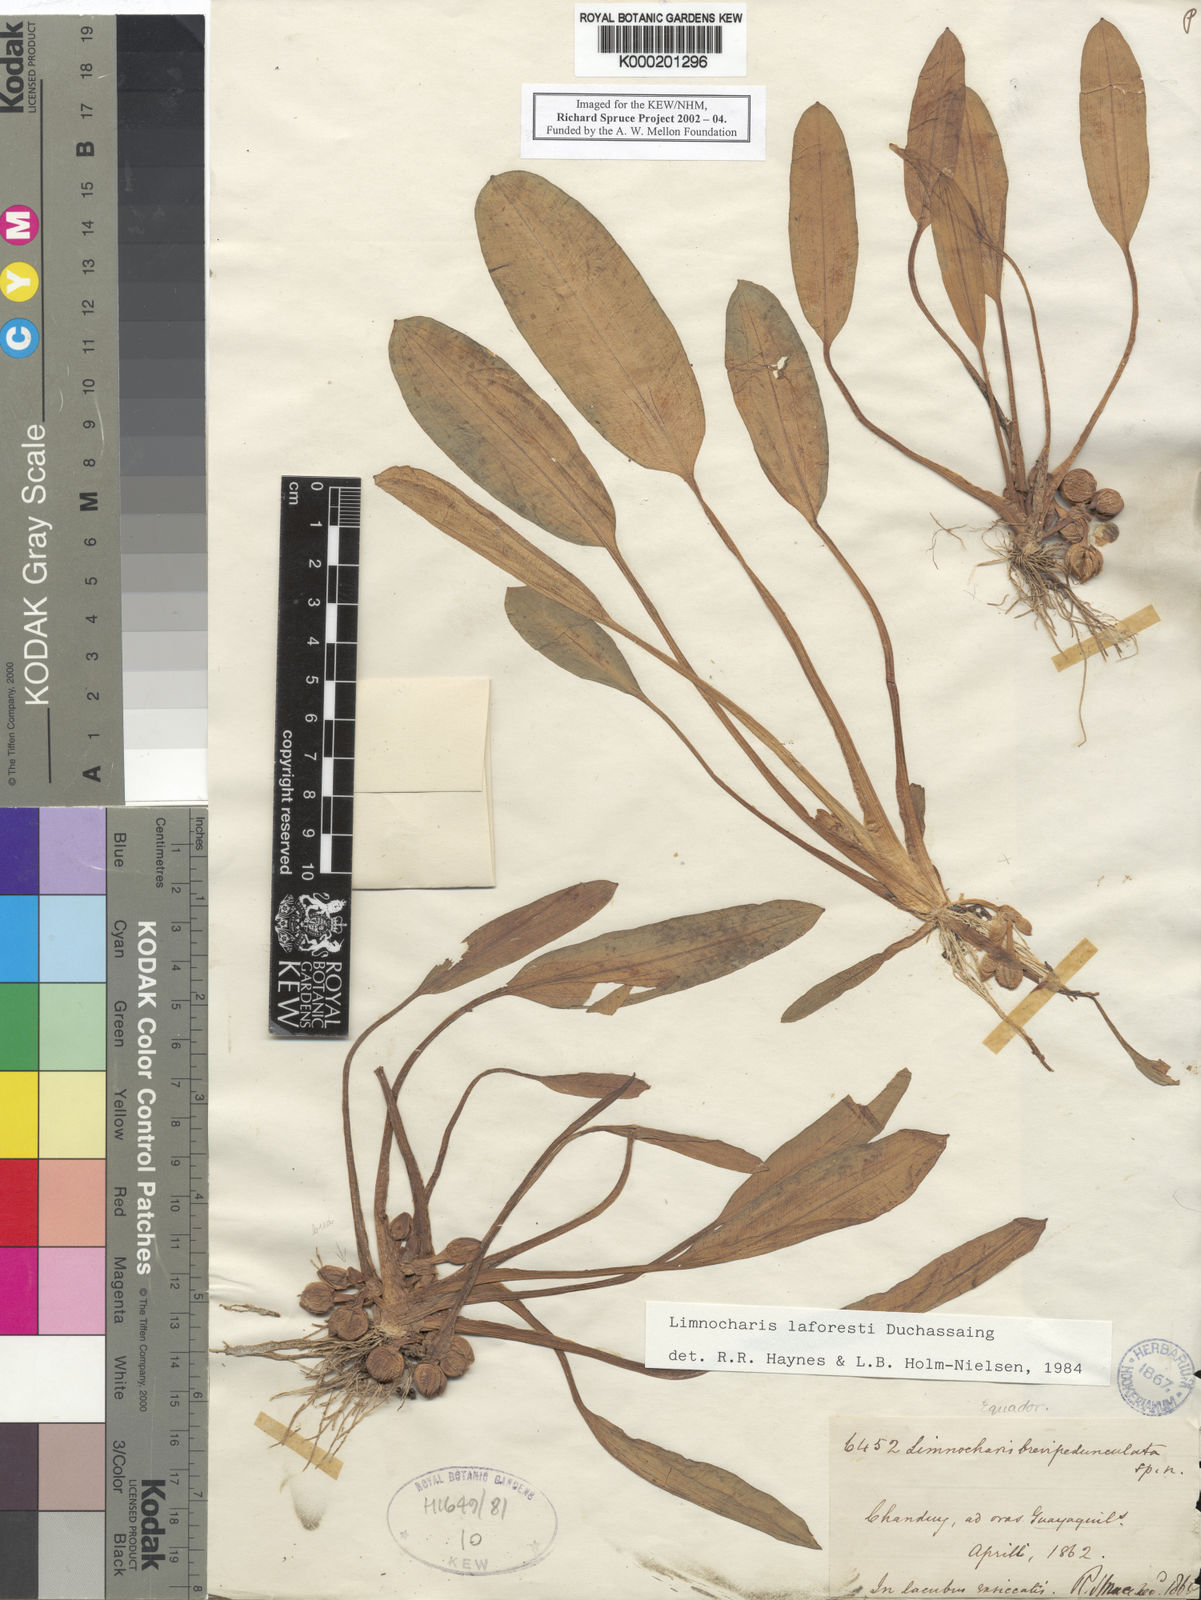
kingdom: Plantae
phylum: Tracheophyta
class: Liliopsida
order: Alismatales
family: Alismataceae
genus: Limnocharis
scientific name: Limnocharis laforestii
